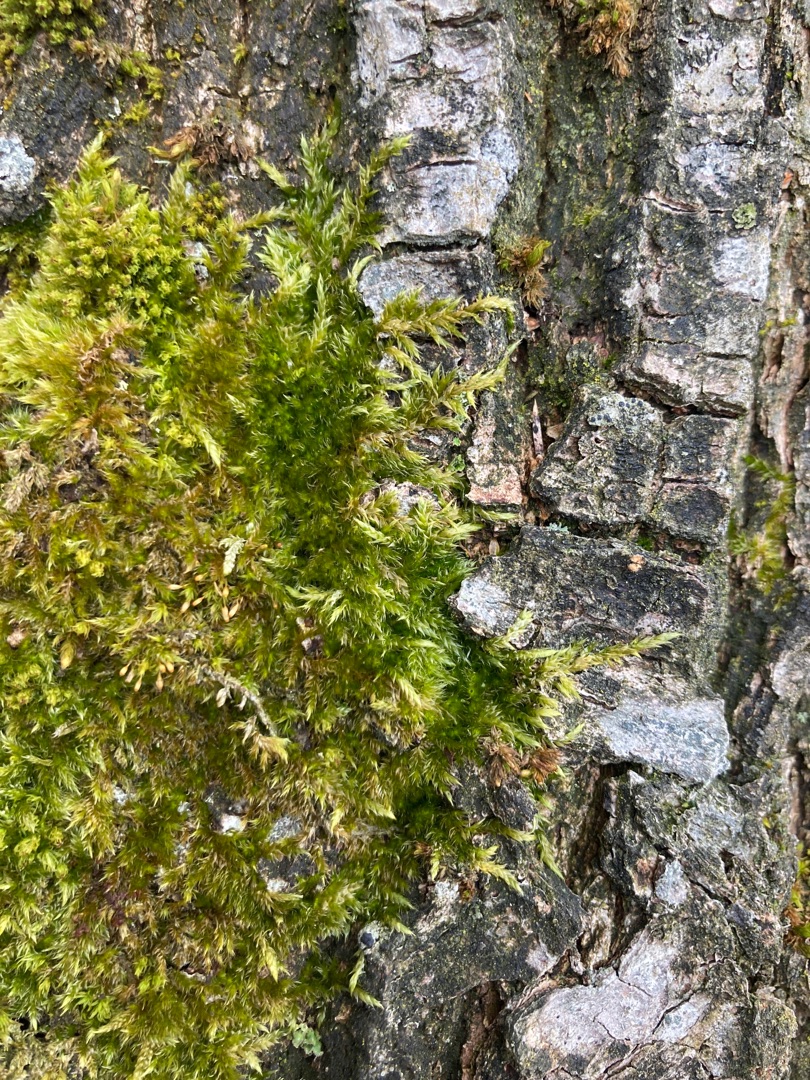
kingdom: Plantae
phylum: Bryophyta
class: Bryopsida
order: Hypnales
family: Hypnaceae
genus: Hypnum
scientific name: Hypnum
